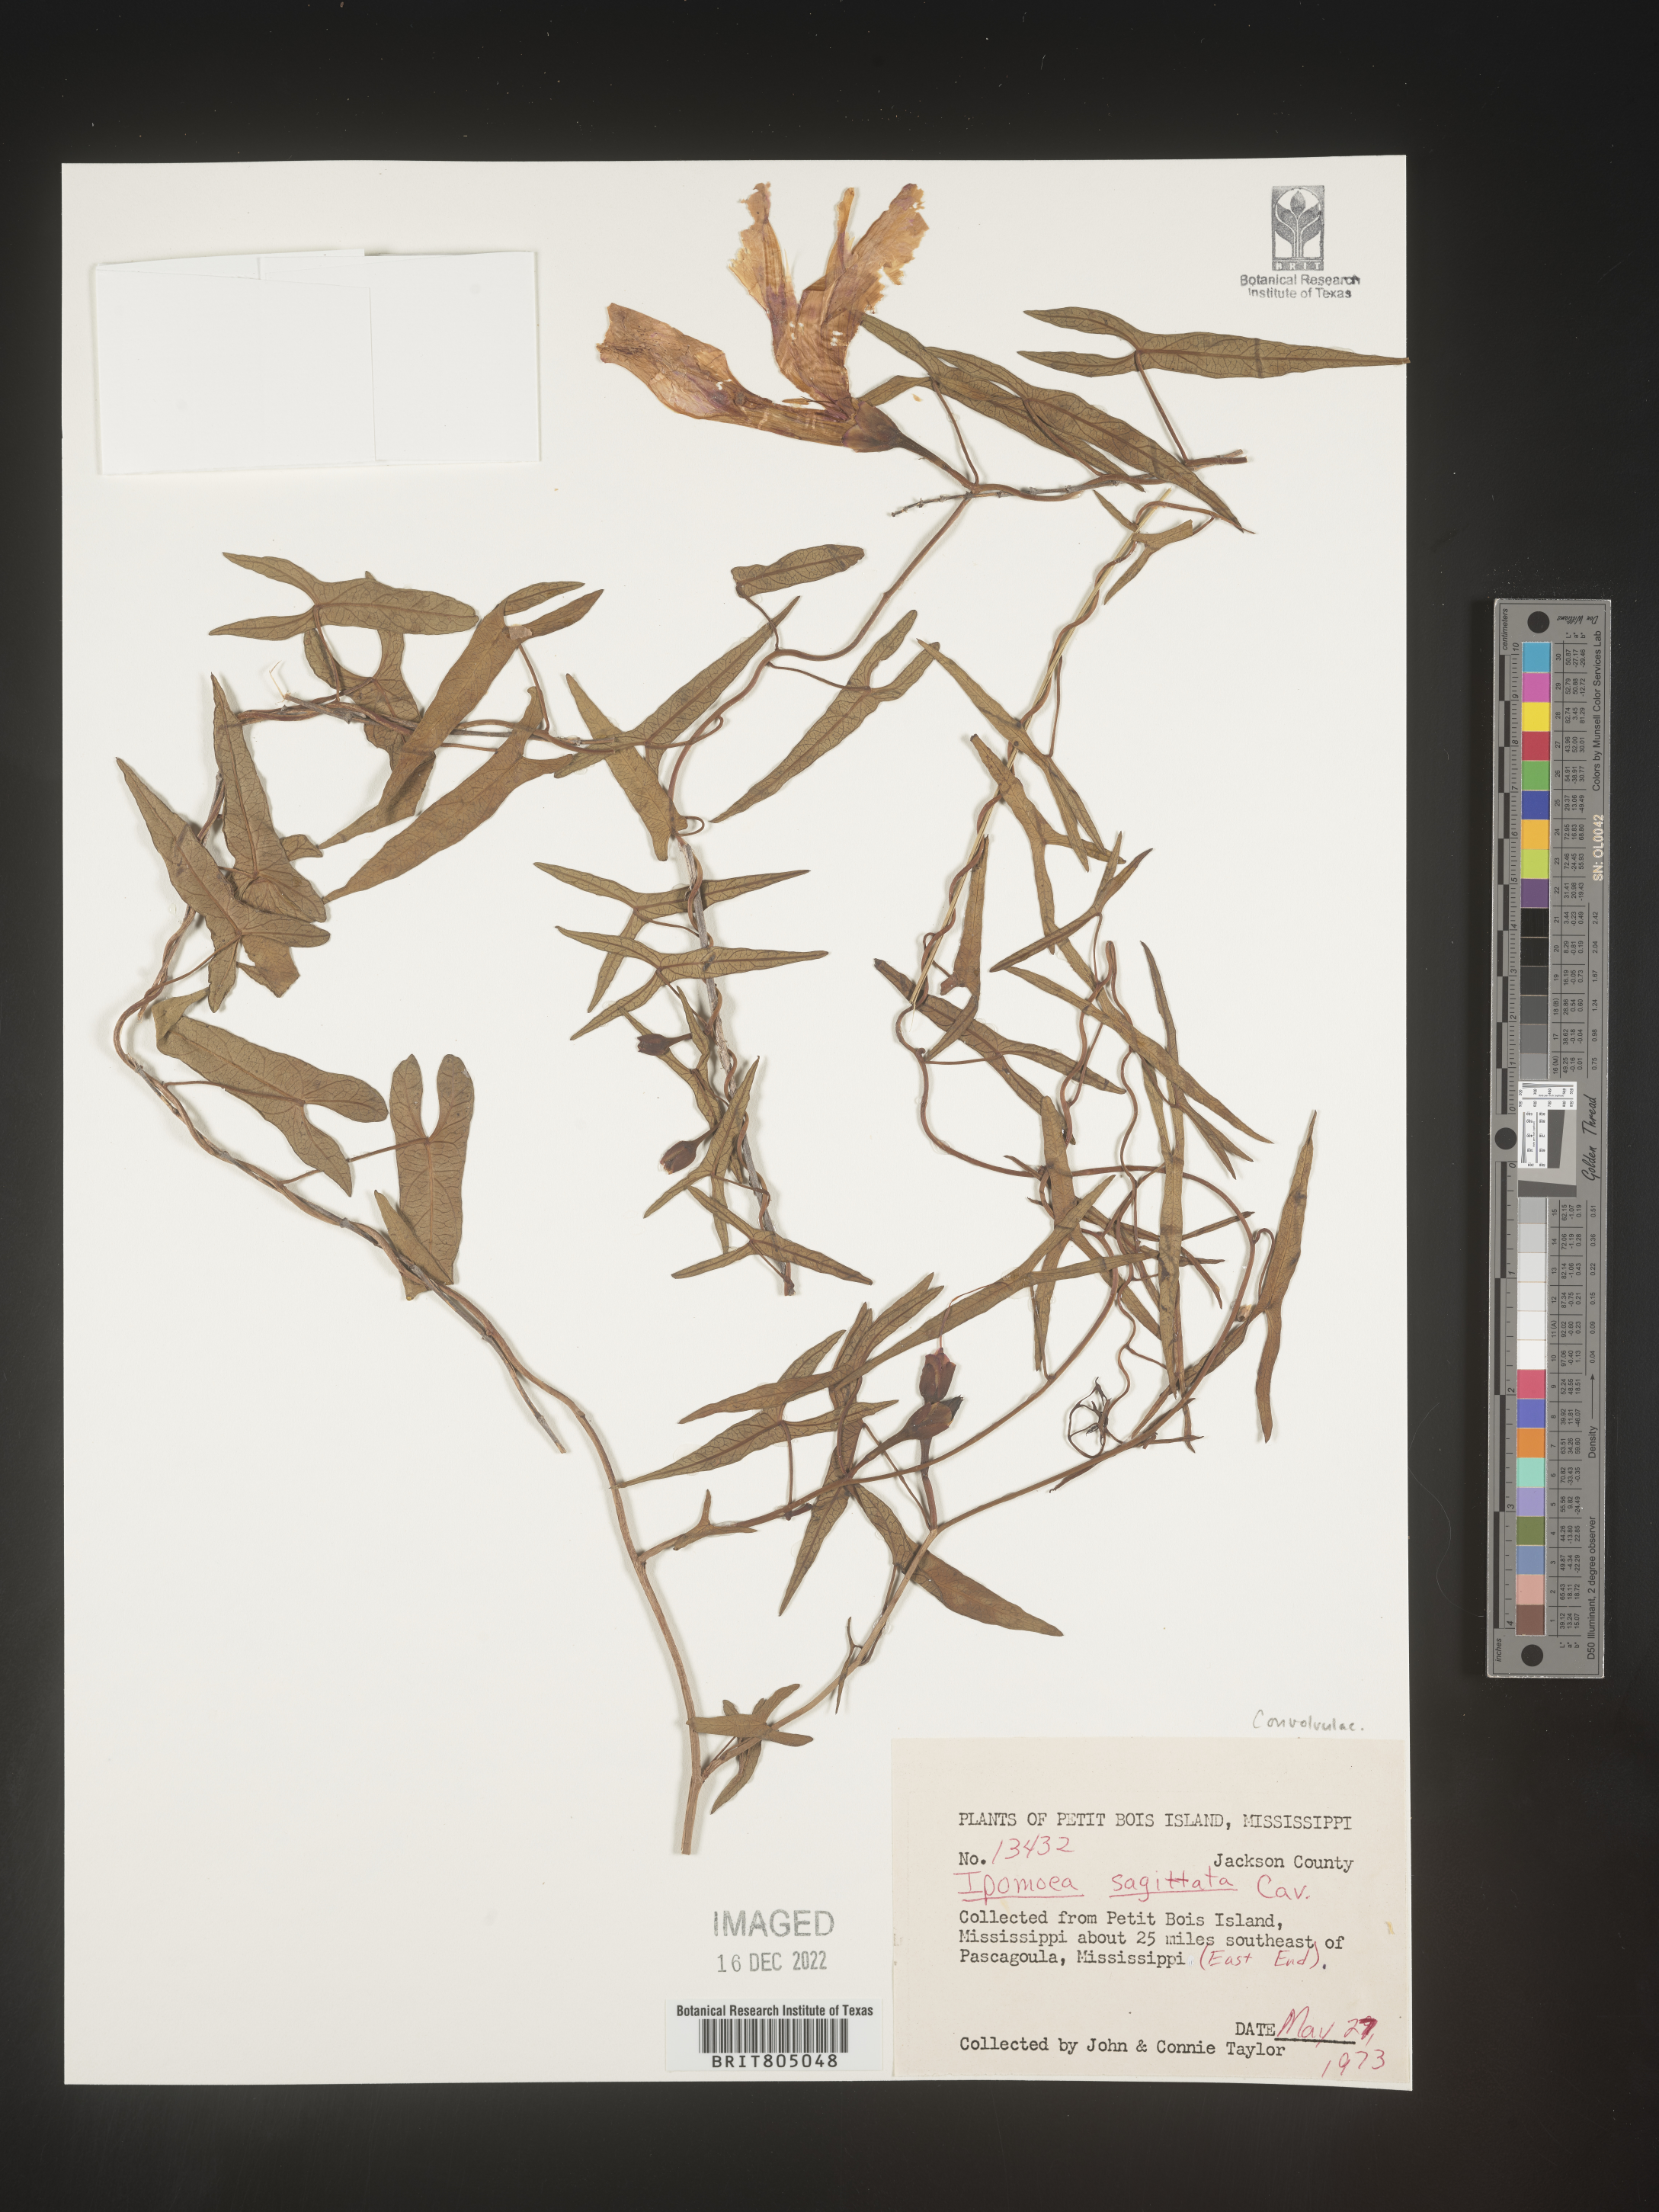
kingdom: Plantae
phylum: Tracheophyta
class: Magnoliopsida
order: Solanales
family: Convolvulaceae
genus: Ipomoea
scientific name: Ipomoea sinensis
